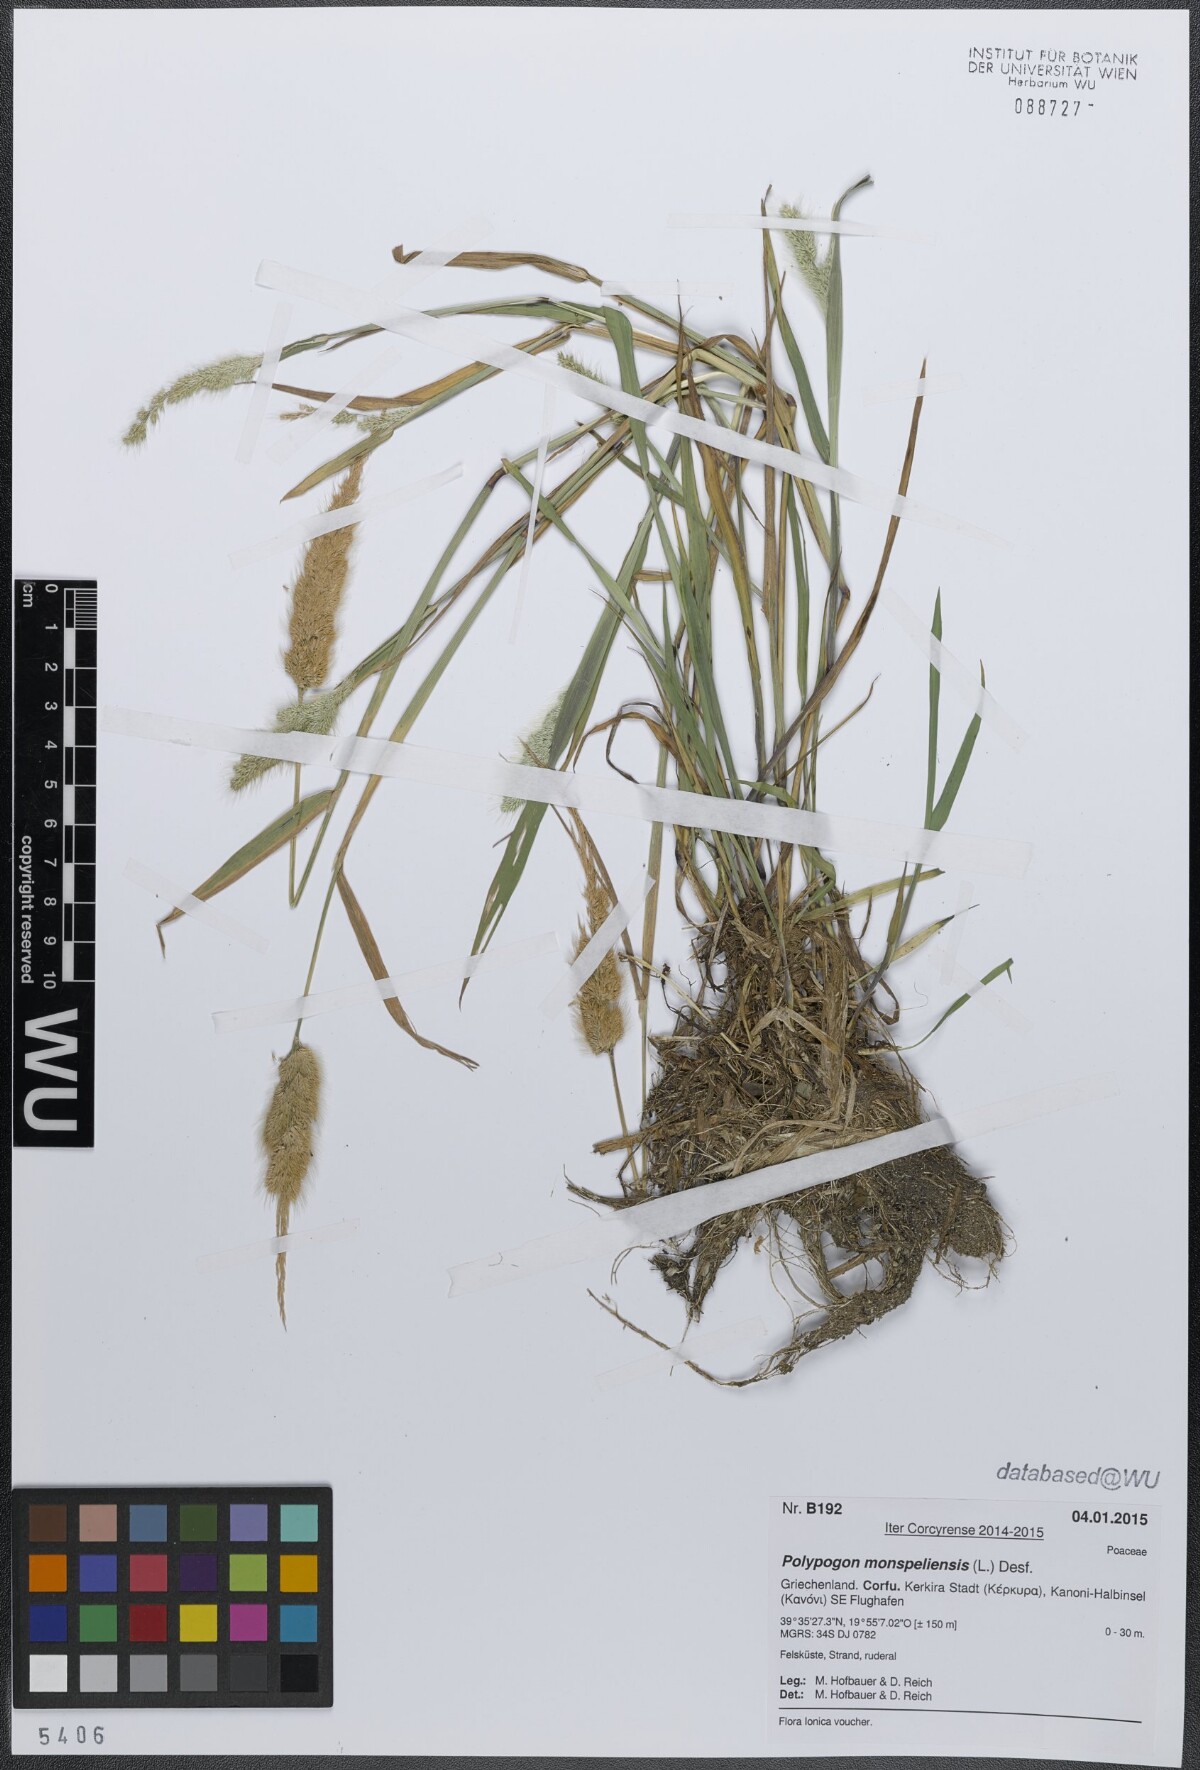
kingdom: Plantae
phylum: Tracheophyta
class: Liliopsida
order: Poales
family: Poaceae
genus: Polypogon
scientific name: Polypogon monspeliensis
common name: Annual rabbitsfoot grass
